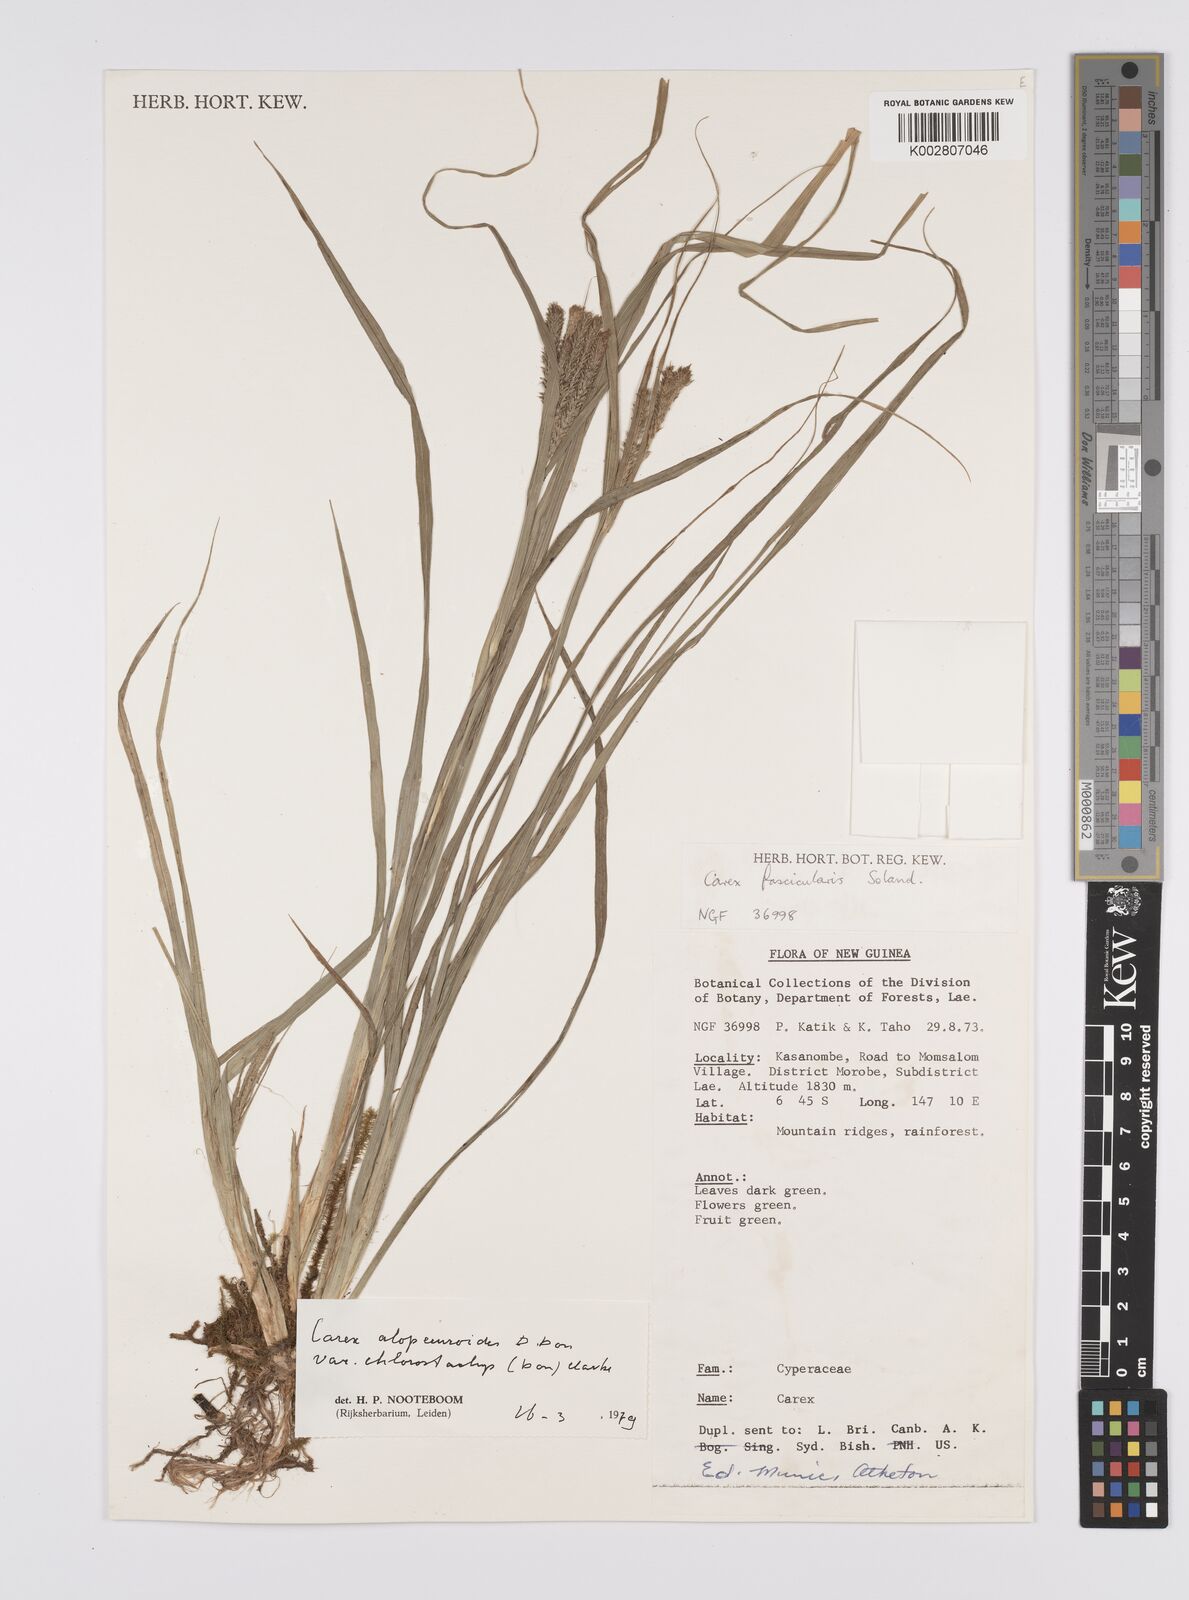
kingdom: Plantae
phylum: Tracheophyta
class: Liliopsida
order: Poales
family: Cyperaceae
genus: Carex
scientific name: Carex alopecuroides
